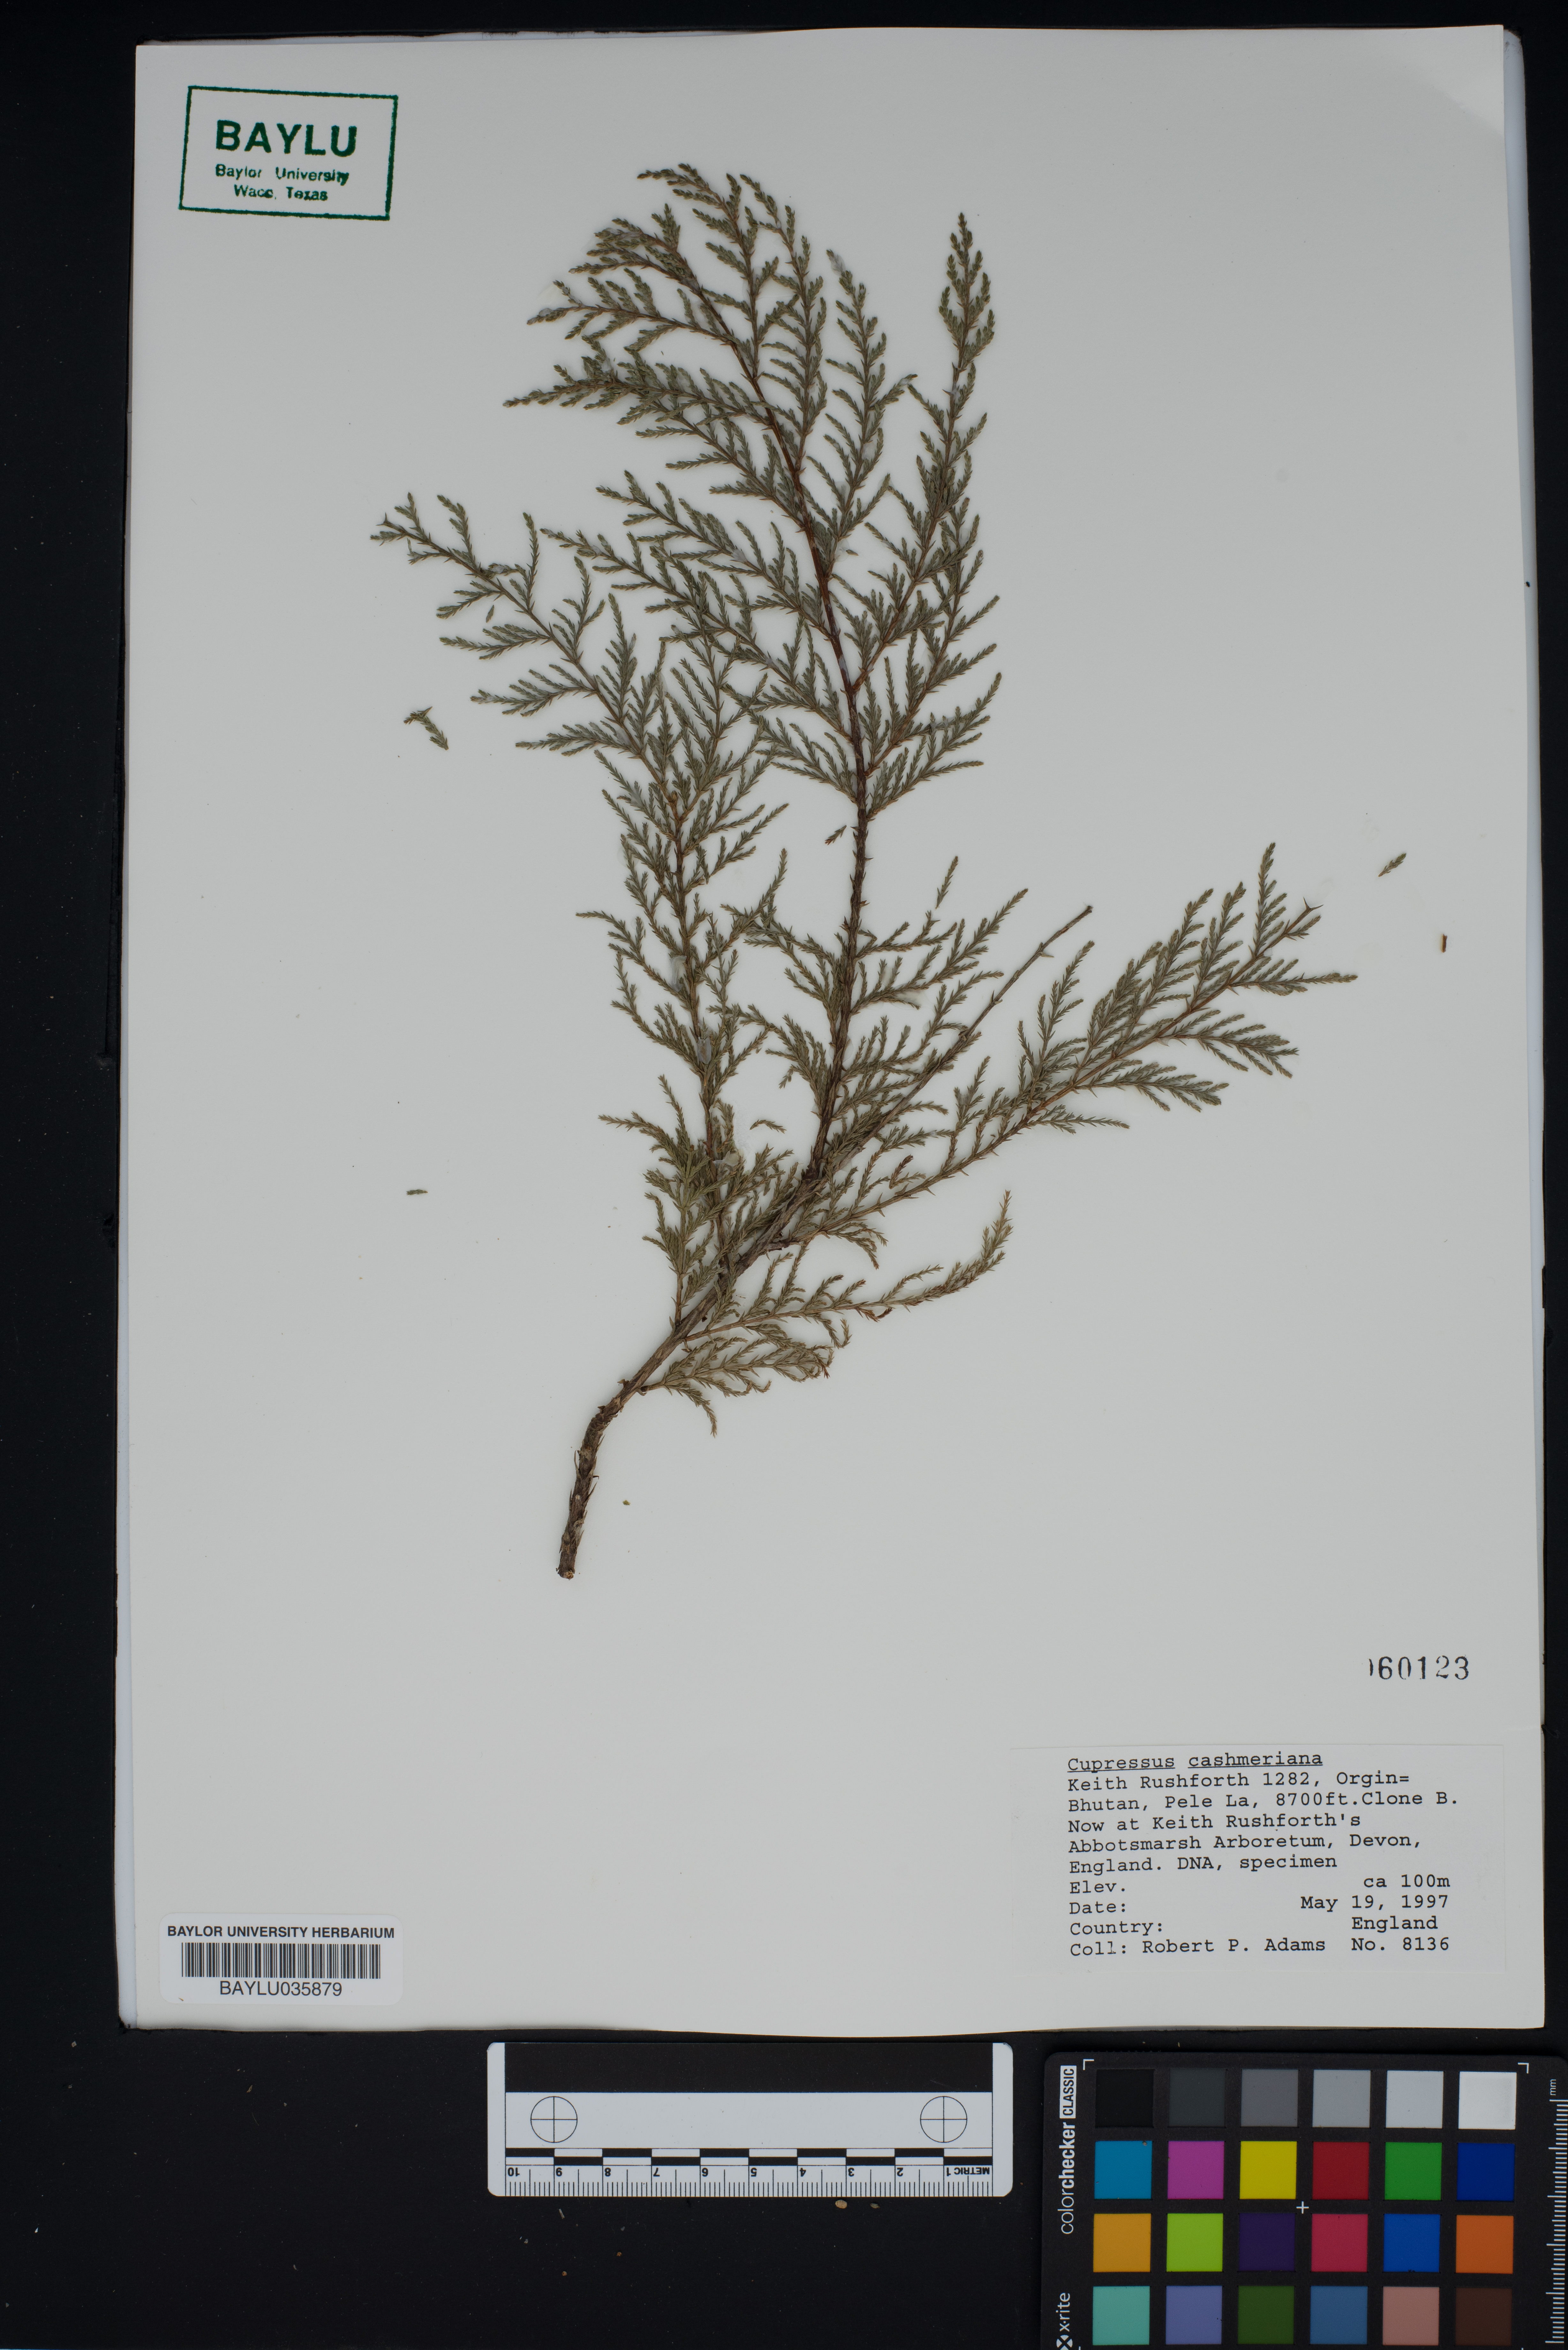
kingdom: Plantae
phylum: Tracheophyta
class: Pinopsida
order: Pinales
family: Cupressaceae
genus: Cupressus
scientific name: Cupressus cashmeriana
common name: Bhutan cypress
